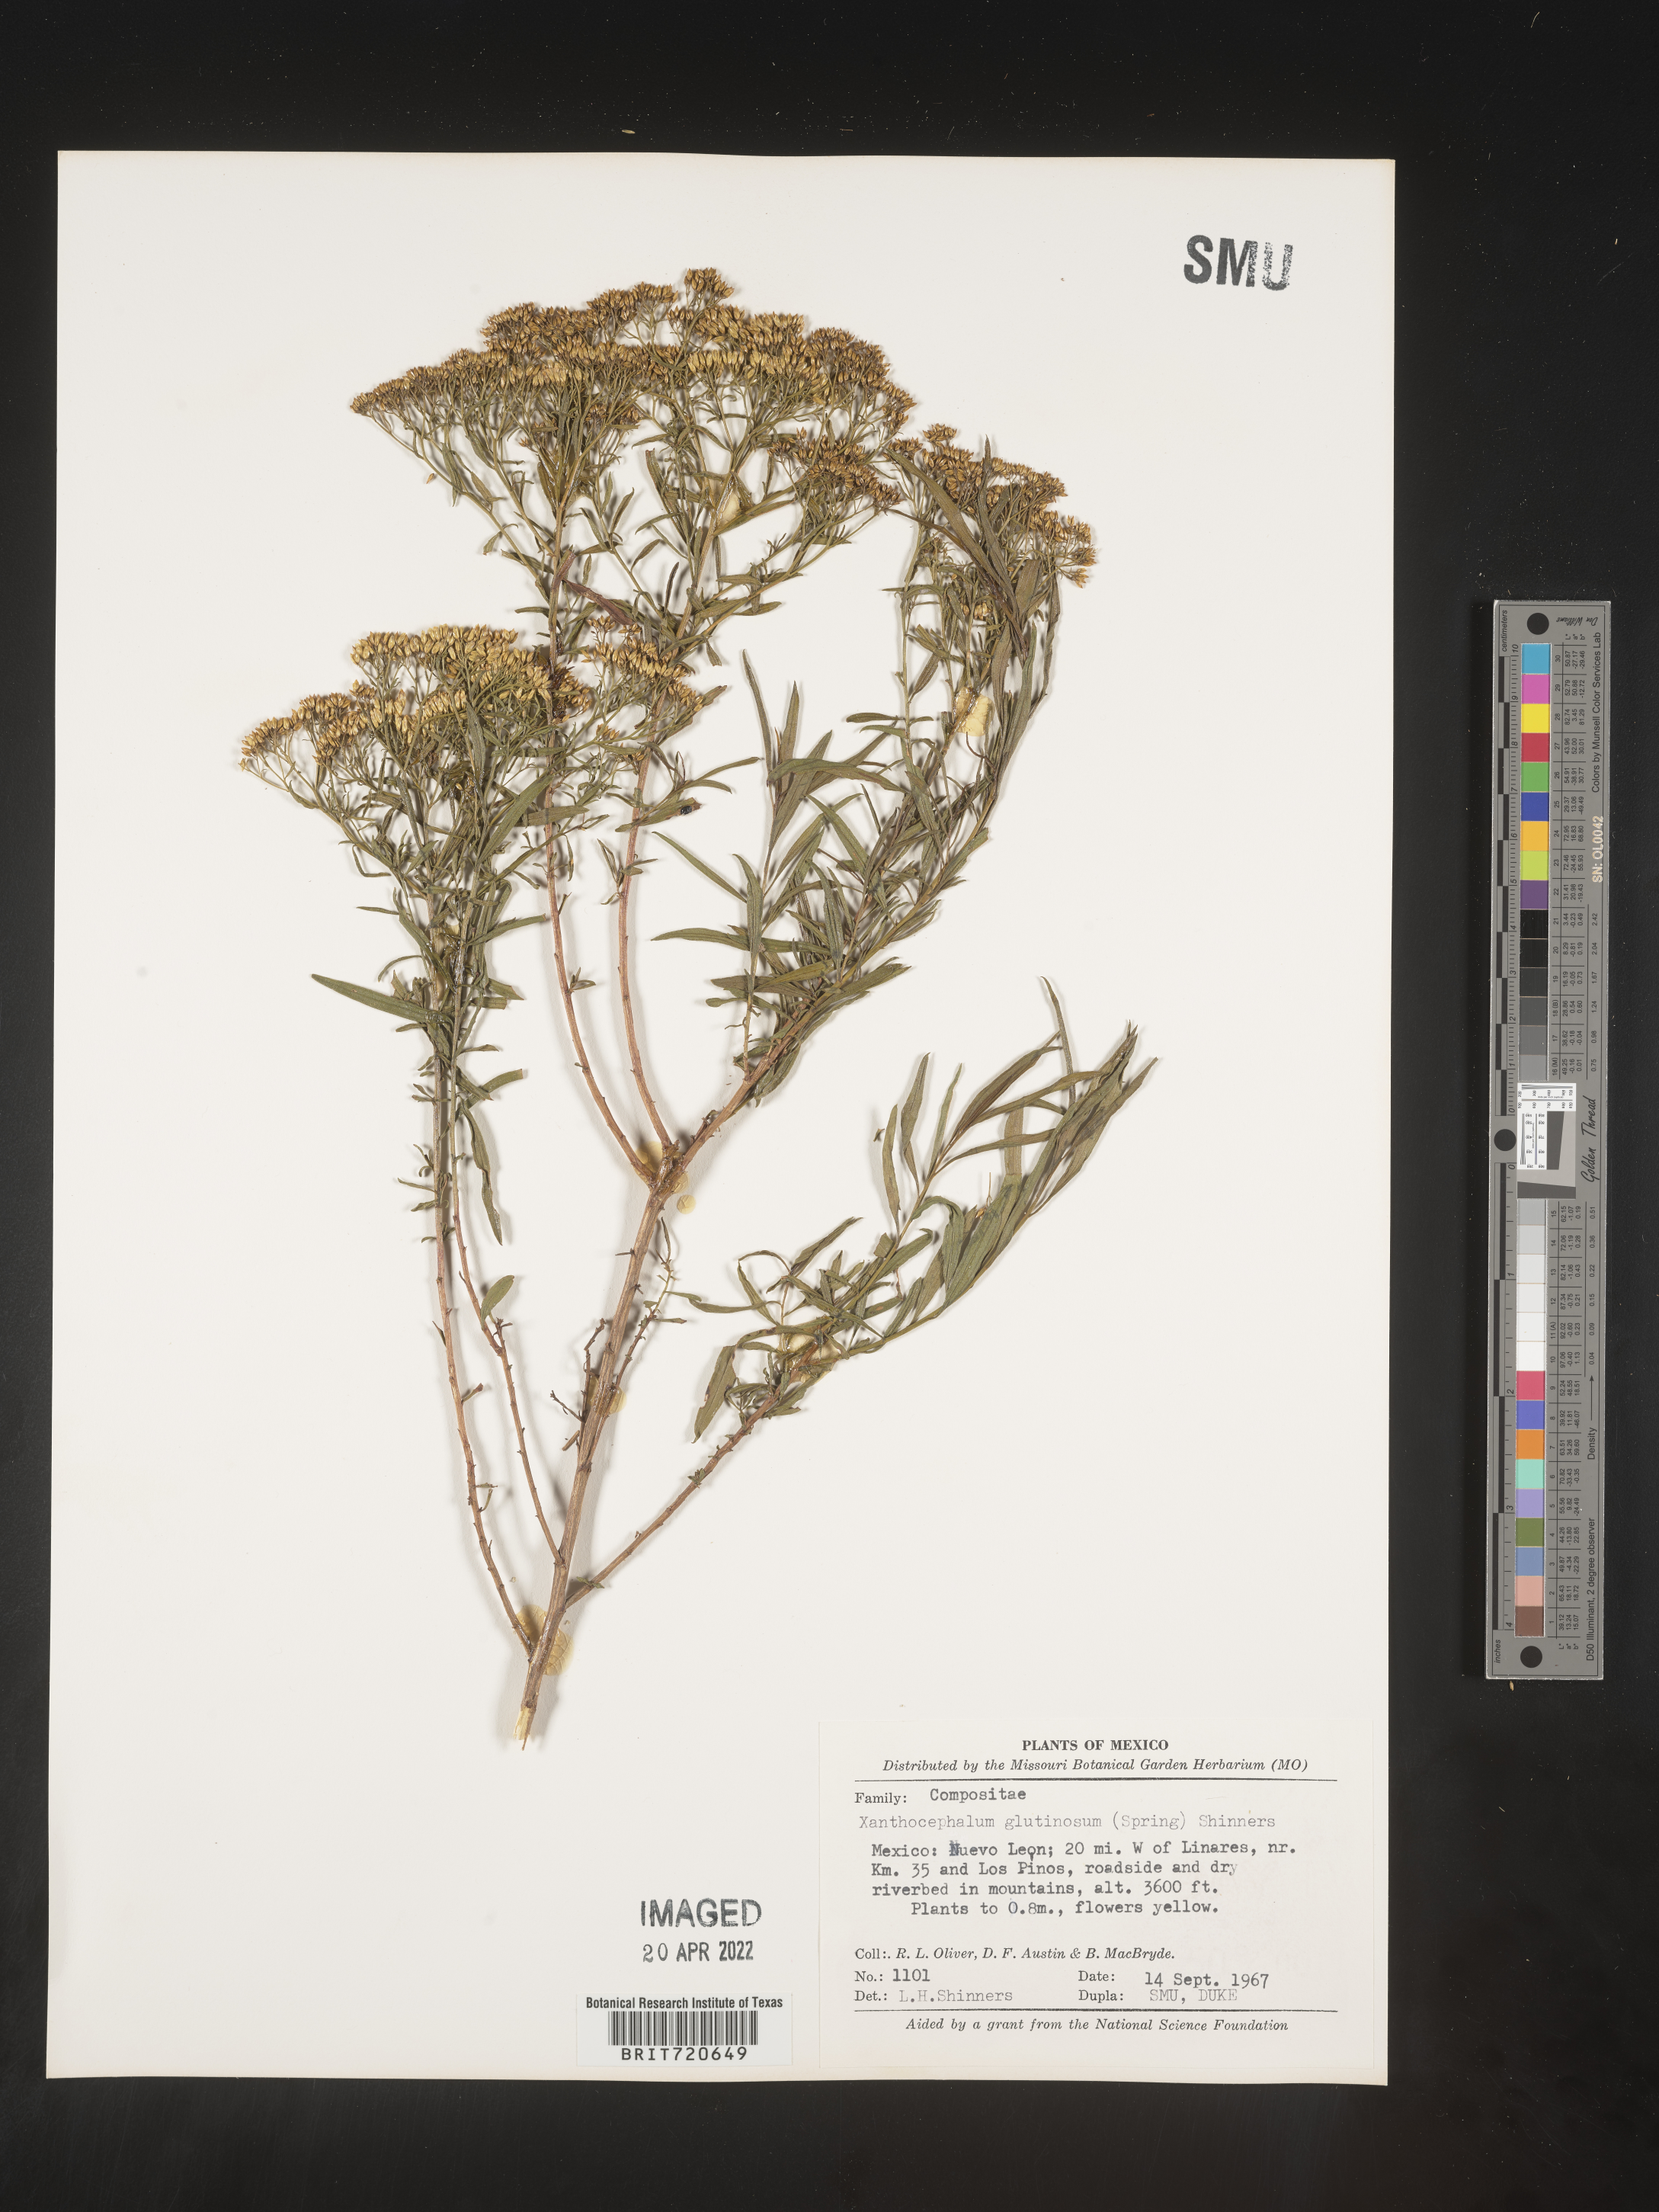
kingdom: Plantae
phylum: Tracheophyta
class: Magnoliopsida
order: Asterales
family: Asteraceae
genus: Gymnosperma
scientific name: Gymnosperma glutinosum
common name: Gumhead
